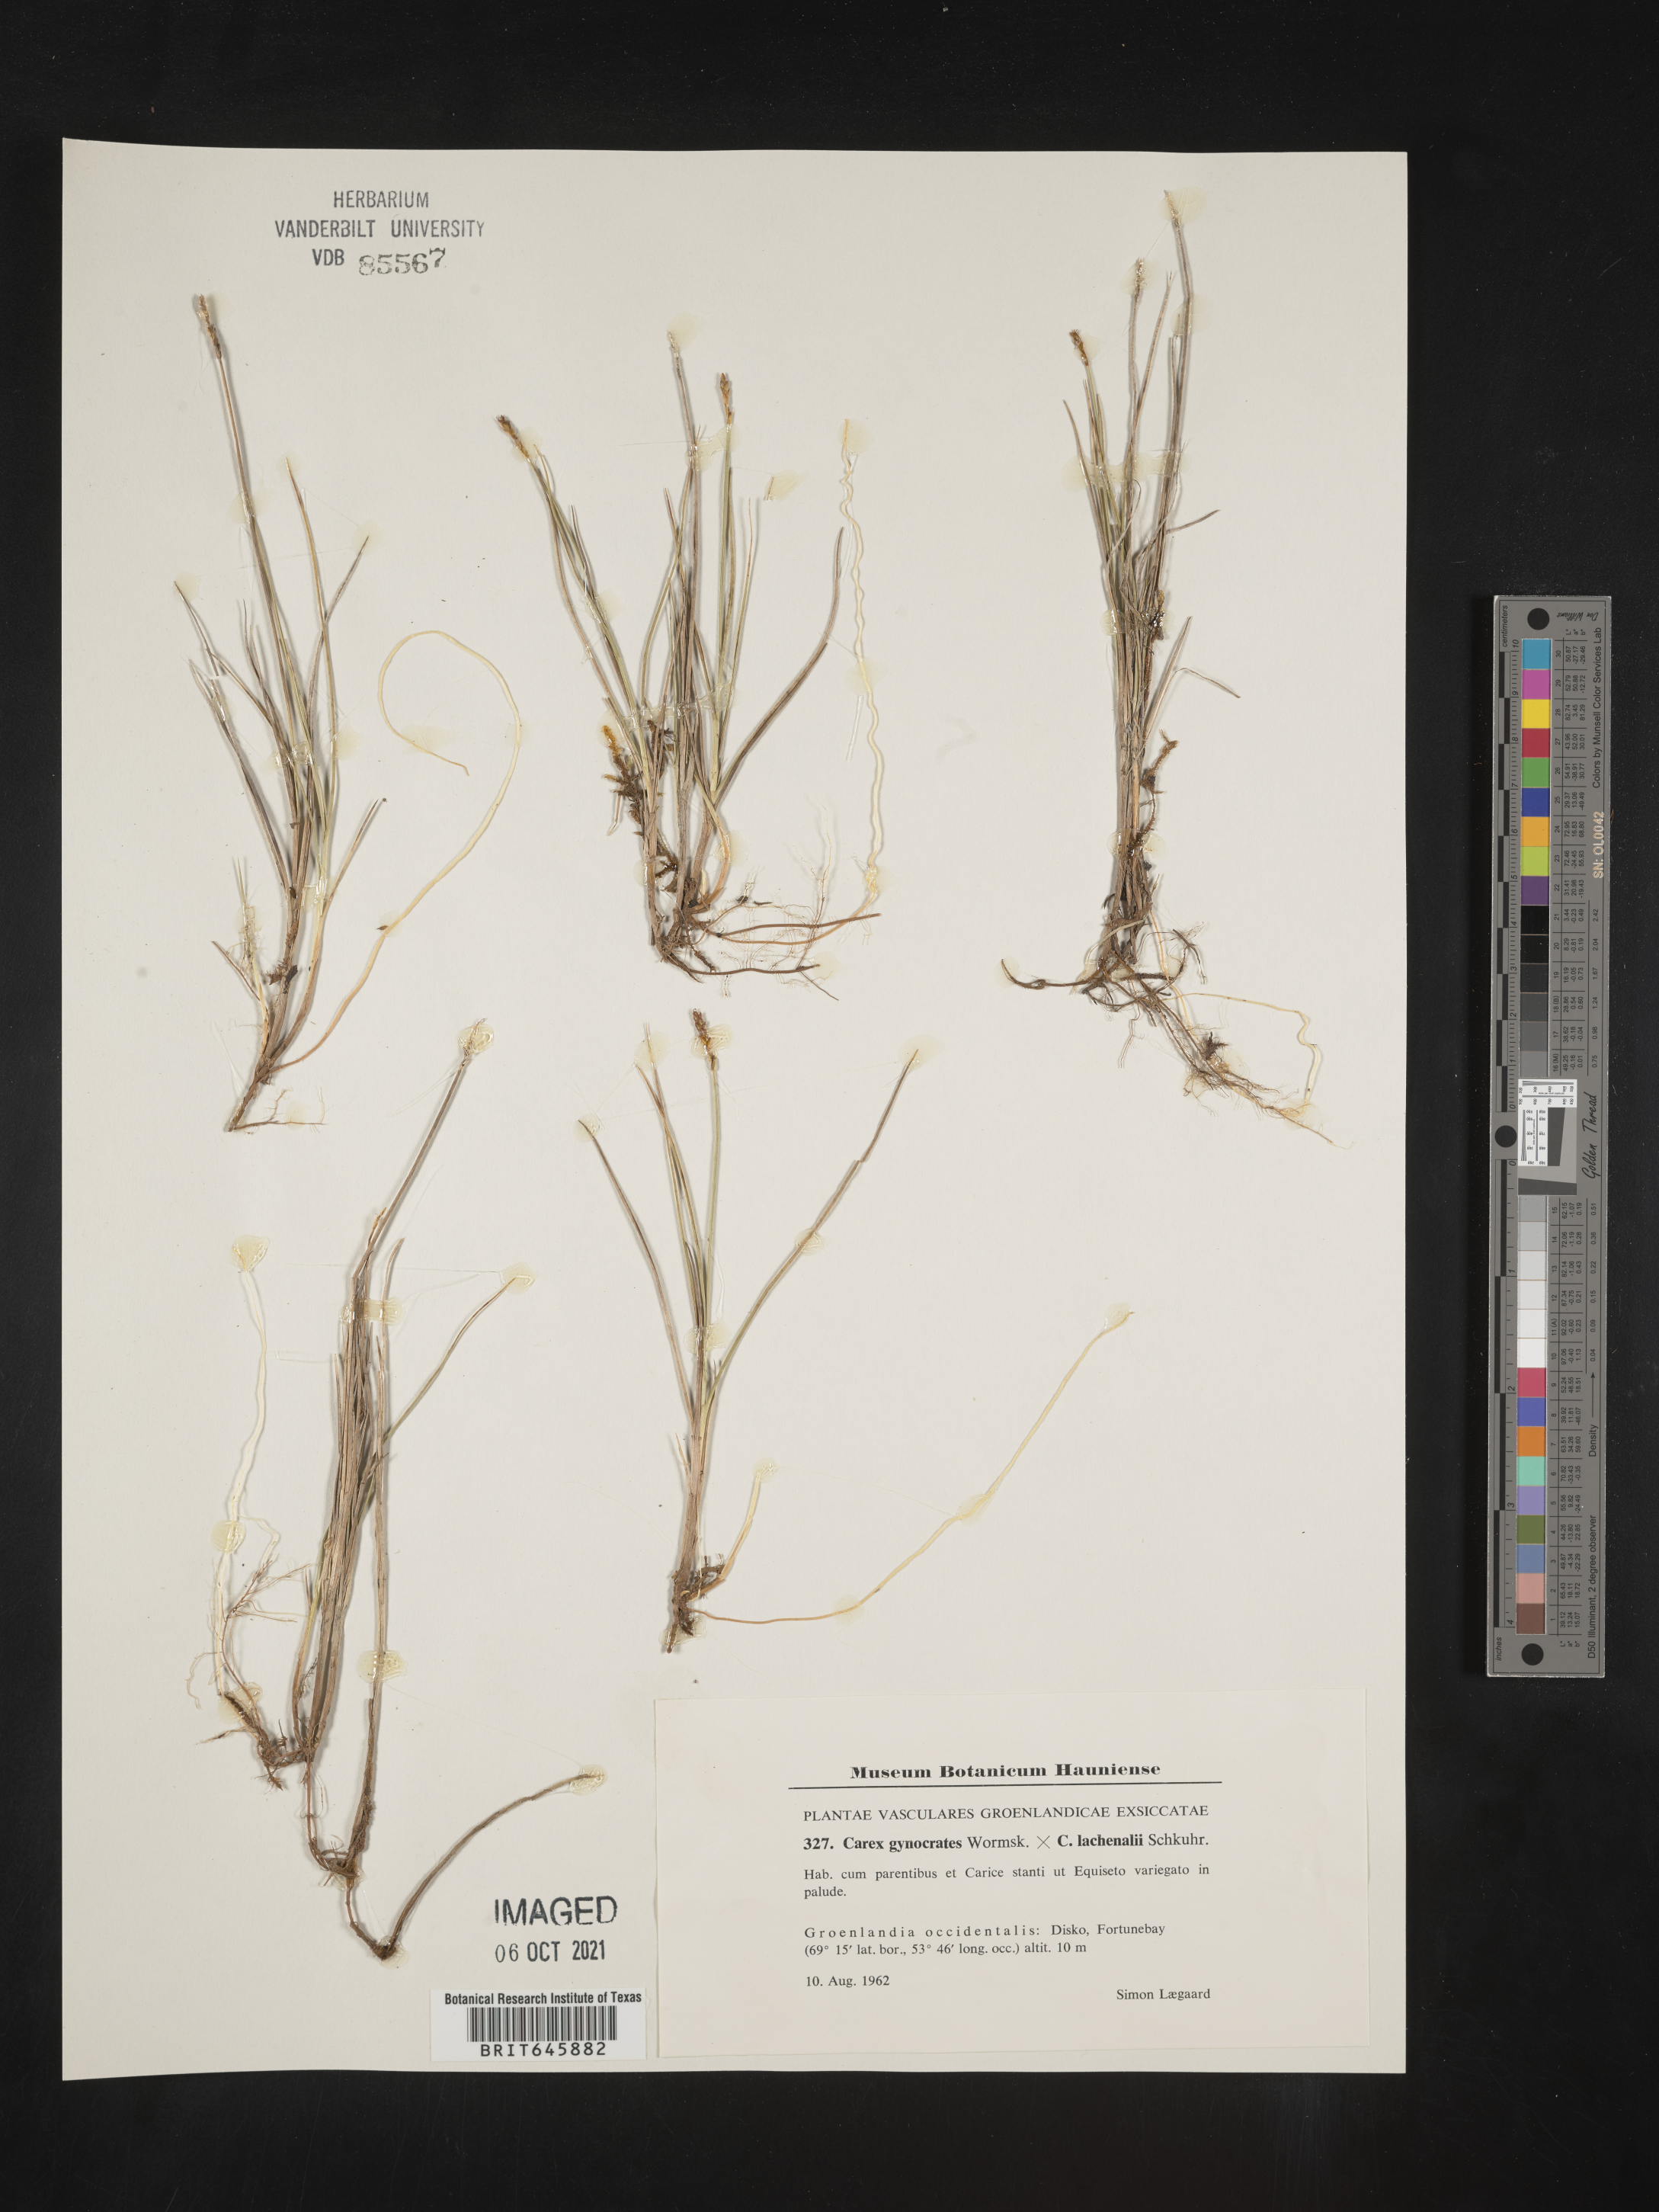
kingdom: Plantae
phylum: Tracheophyta
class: Liliopsida
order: Poales
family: Cyperaceae
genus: Carex
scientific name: Carex
